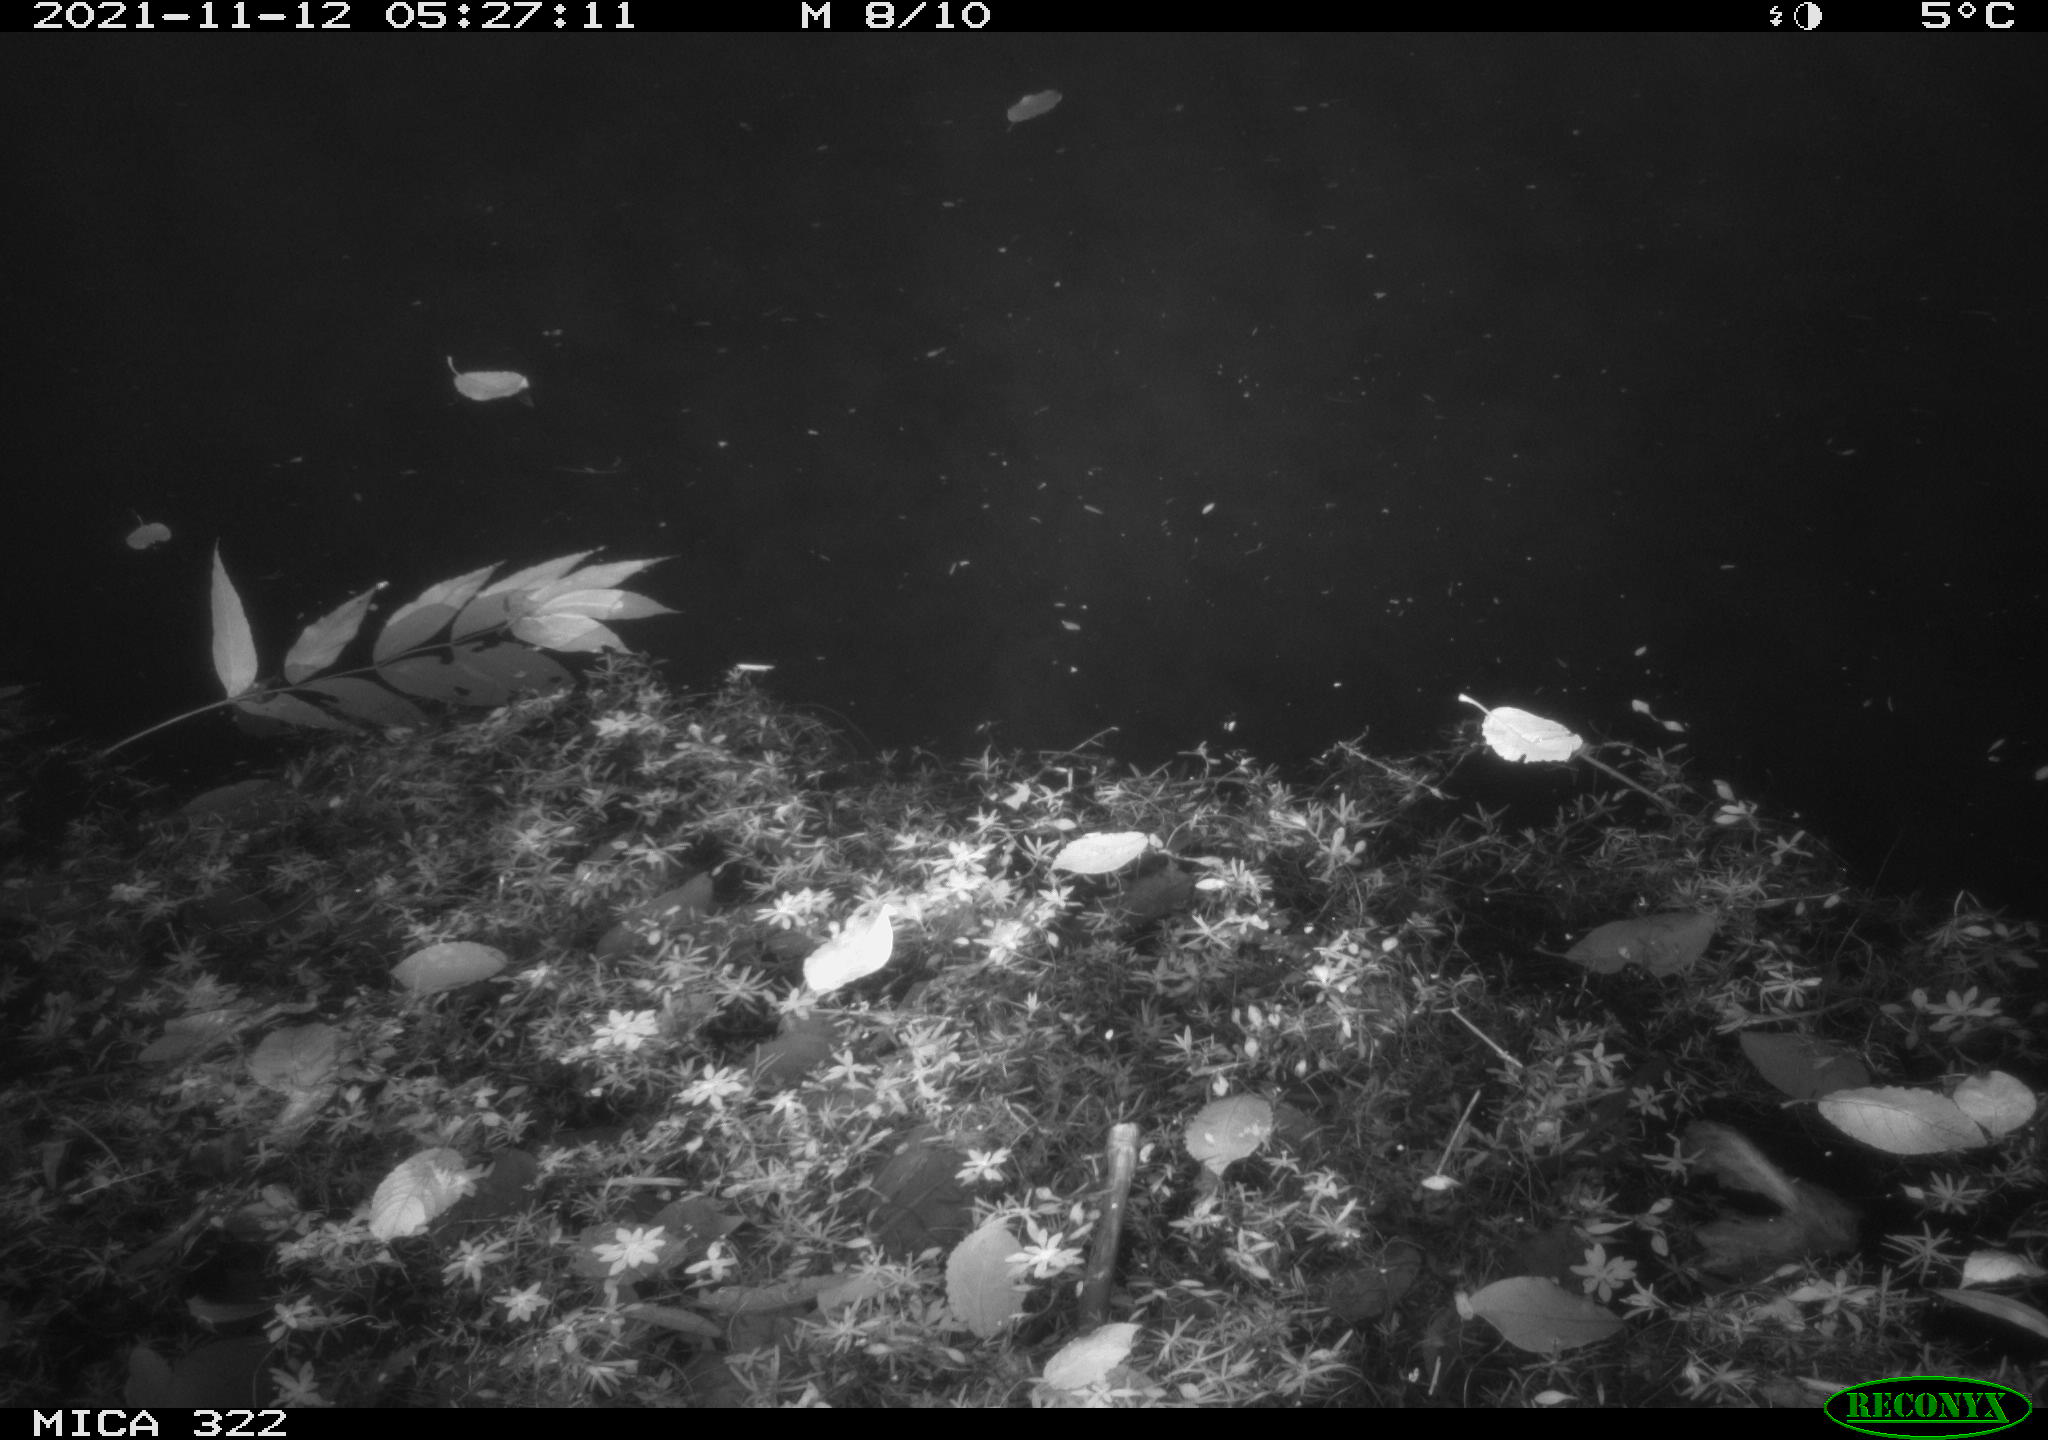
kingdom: Animalia
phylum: Chordata
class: Mammalia
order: Rodentia
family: Muridae
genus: Rattus
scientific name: Rattus norvegicus
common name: Brown rat
